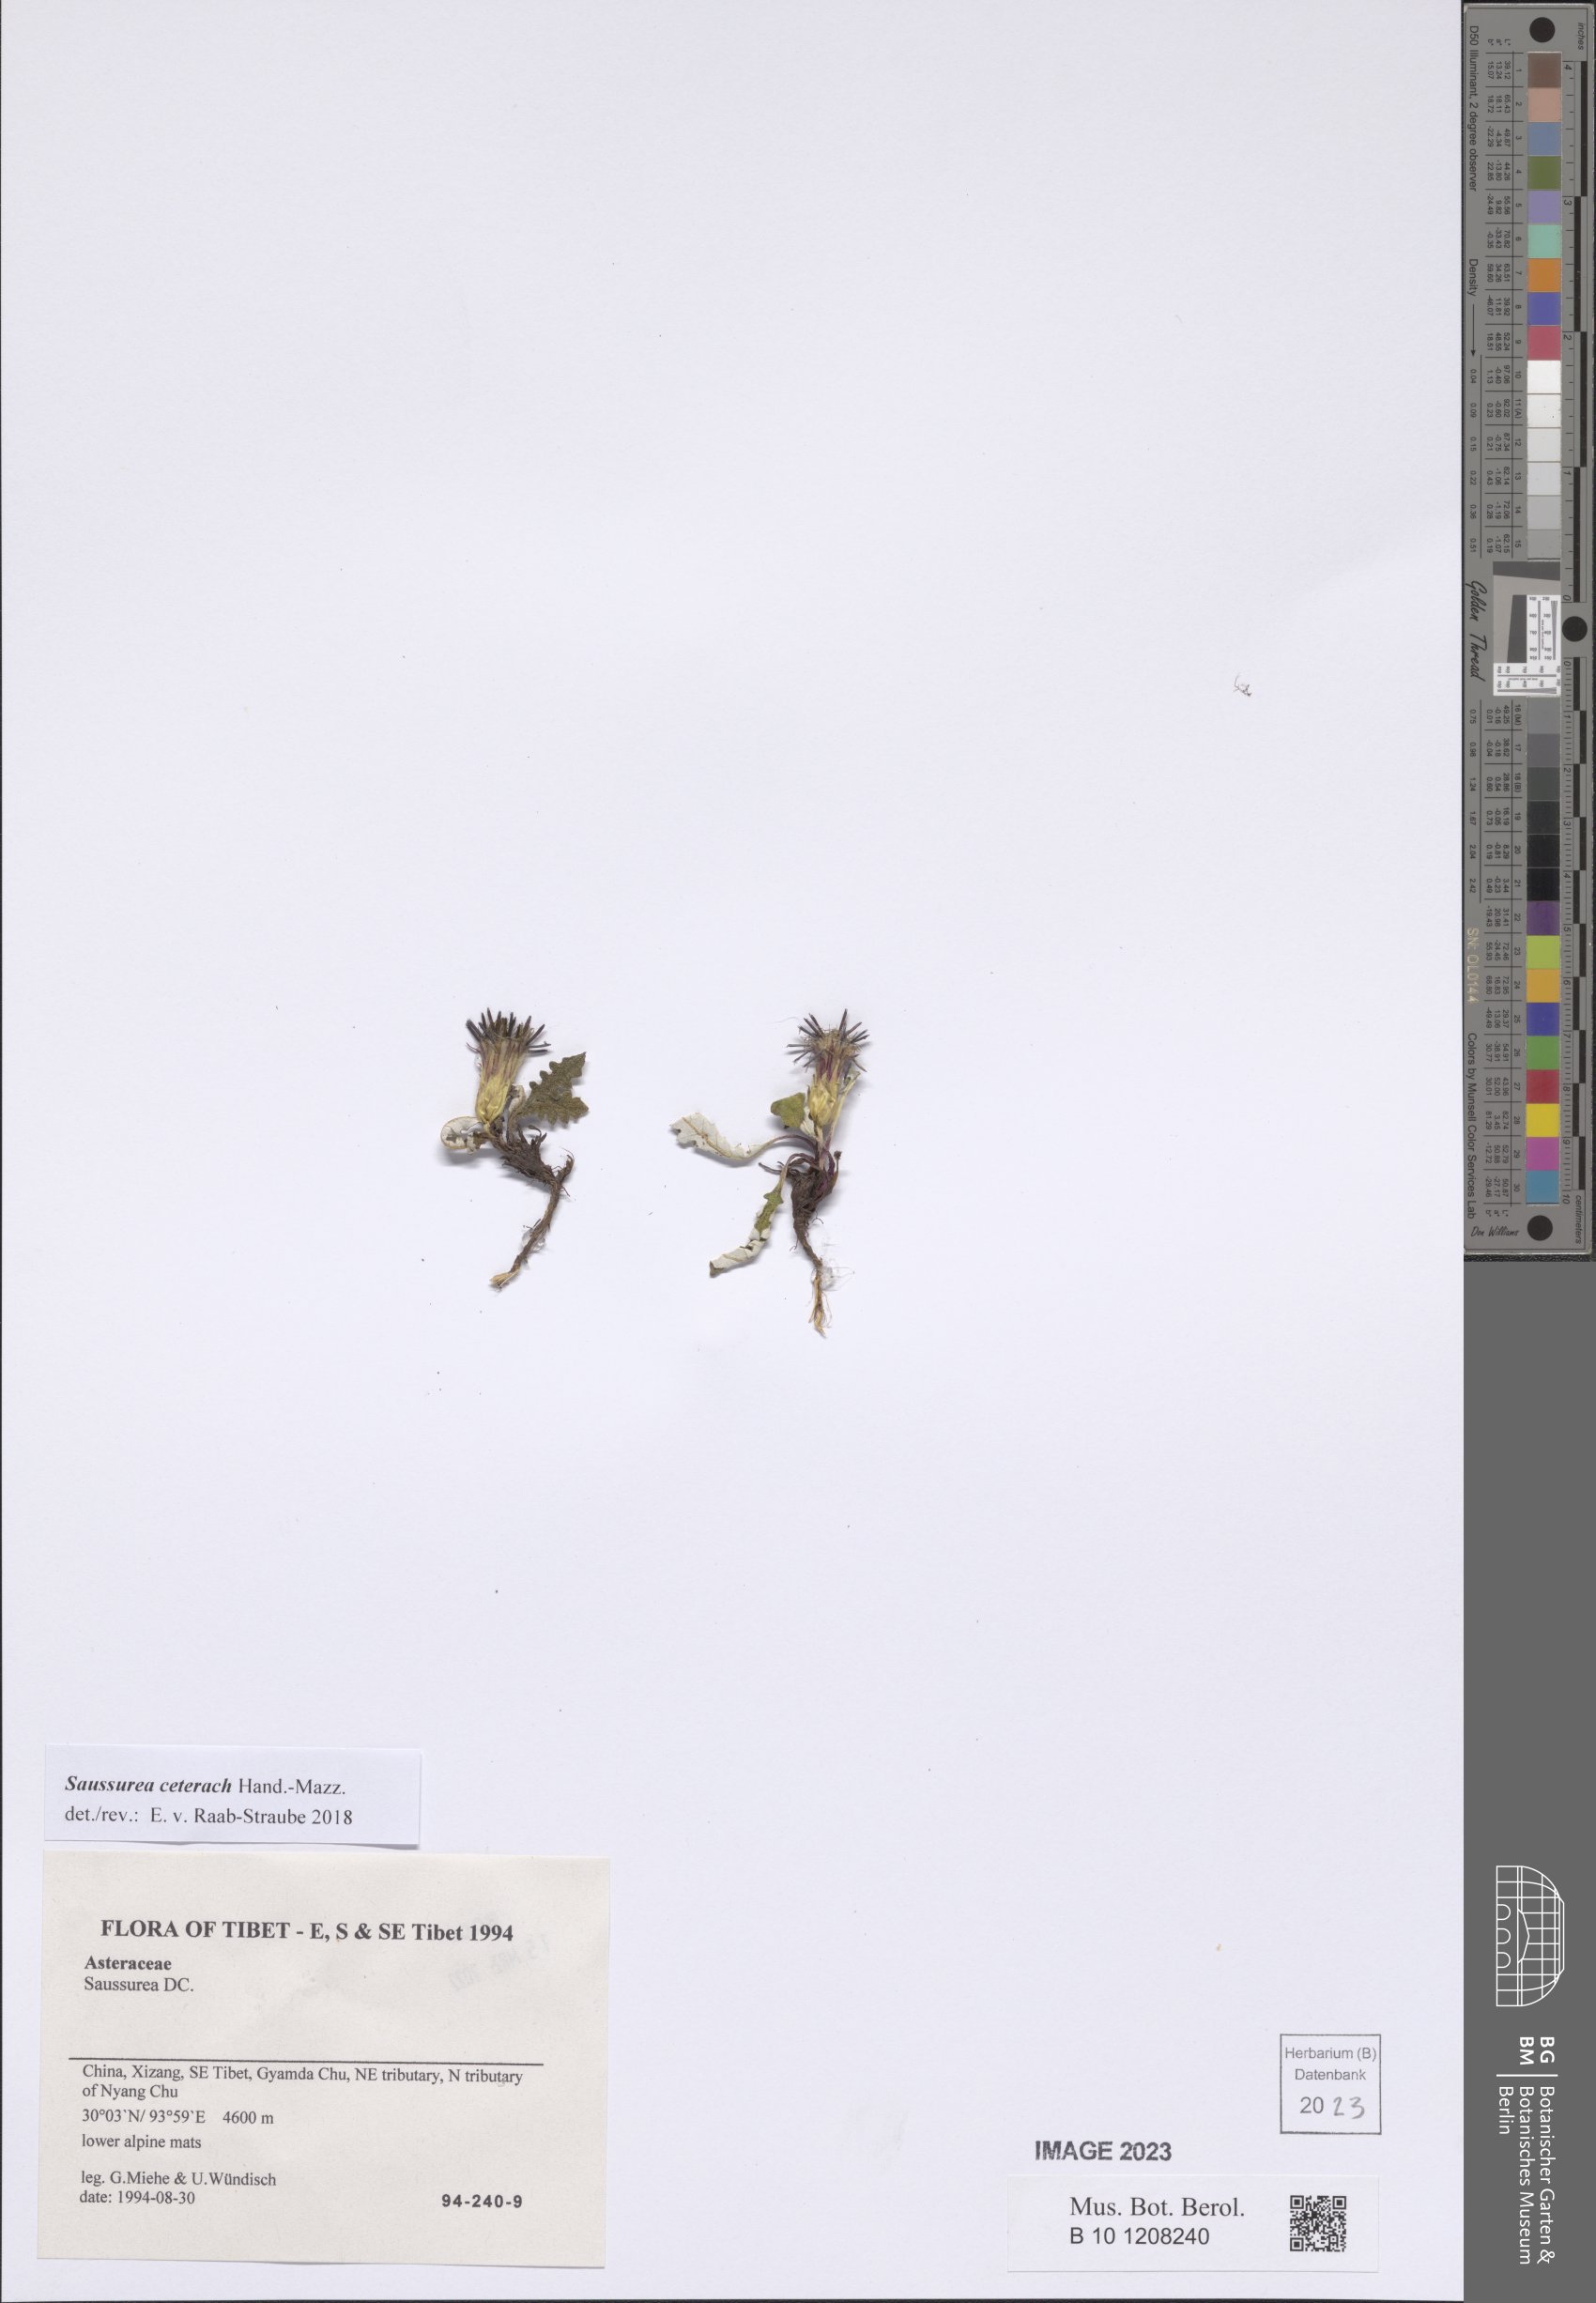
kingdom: Plantae
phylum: Tracheophyta
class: Magnoliopsida
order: Asterales
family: Asteraceae
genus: Saussurea
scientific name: Saussurea ceterach
